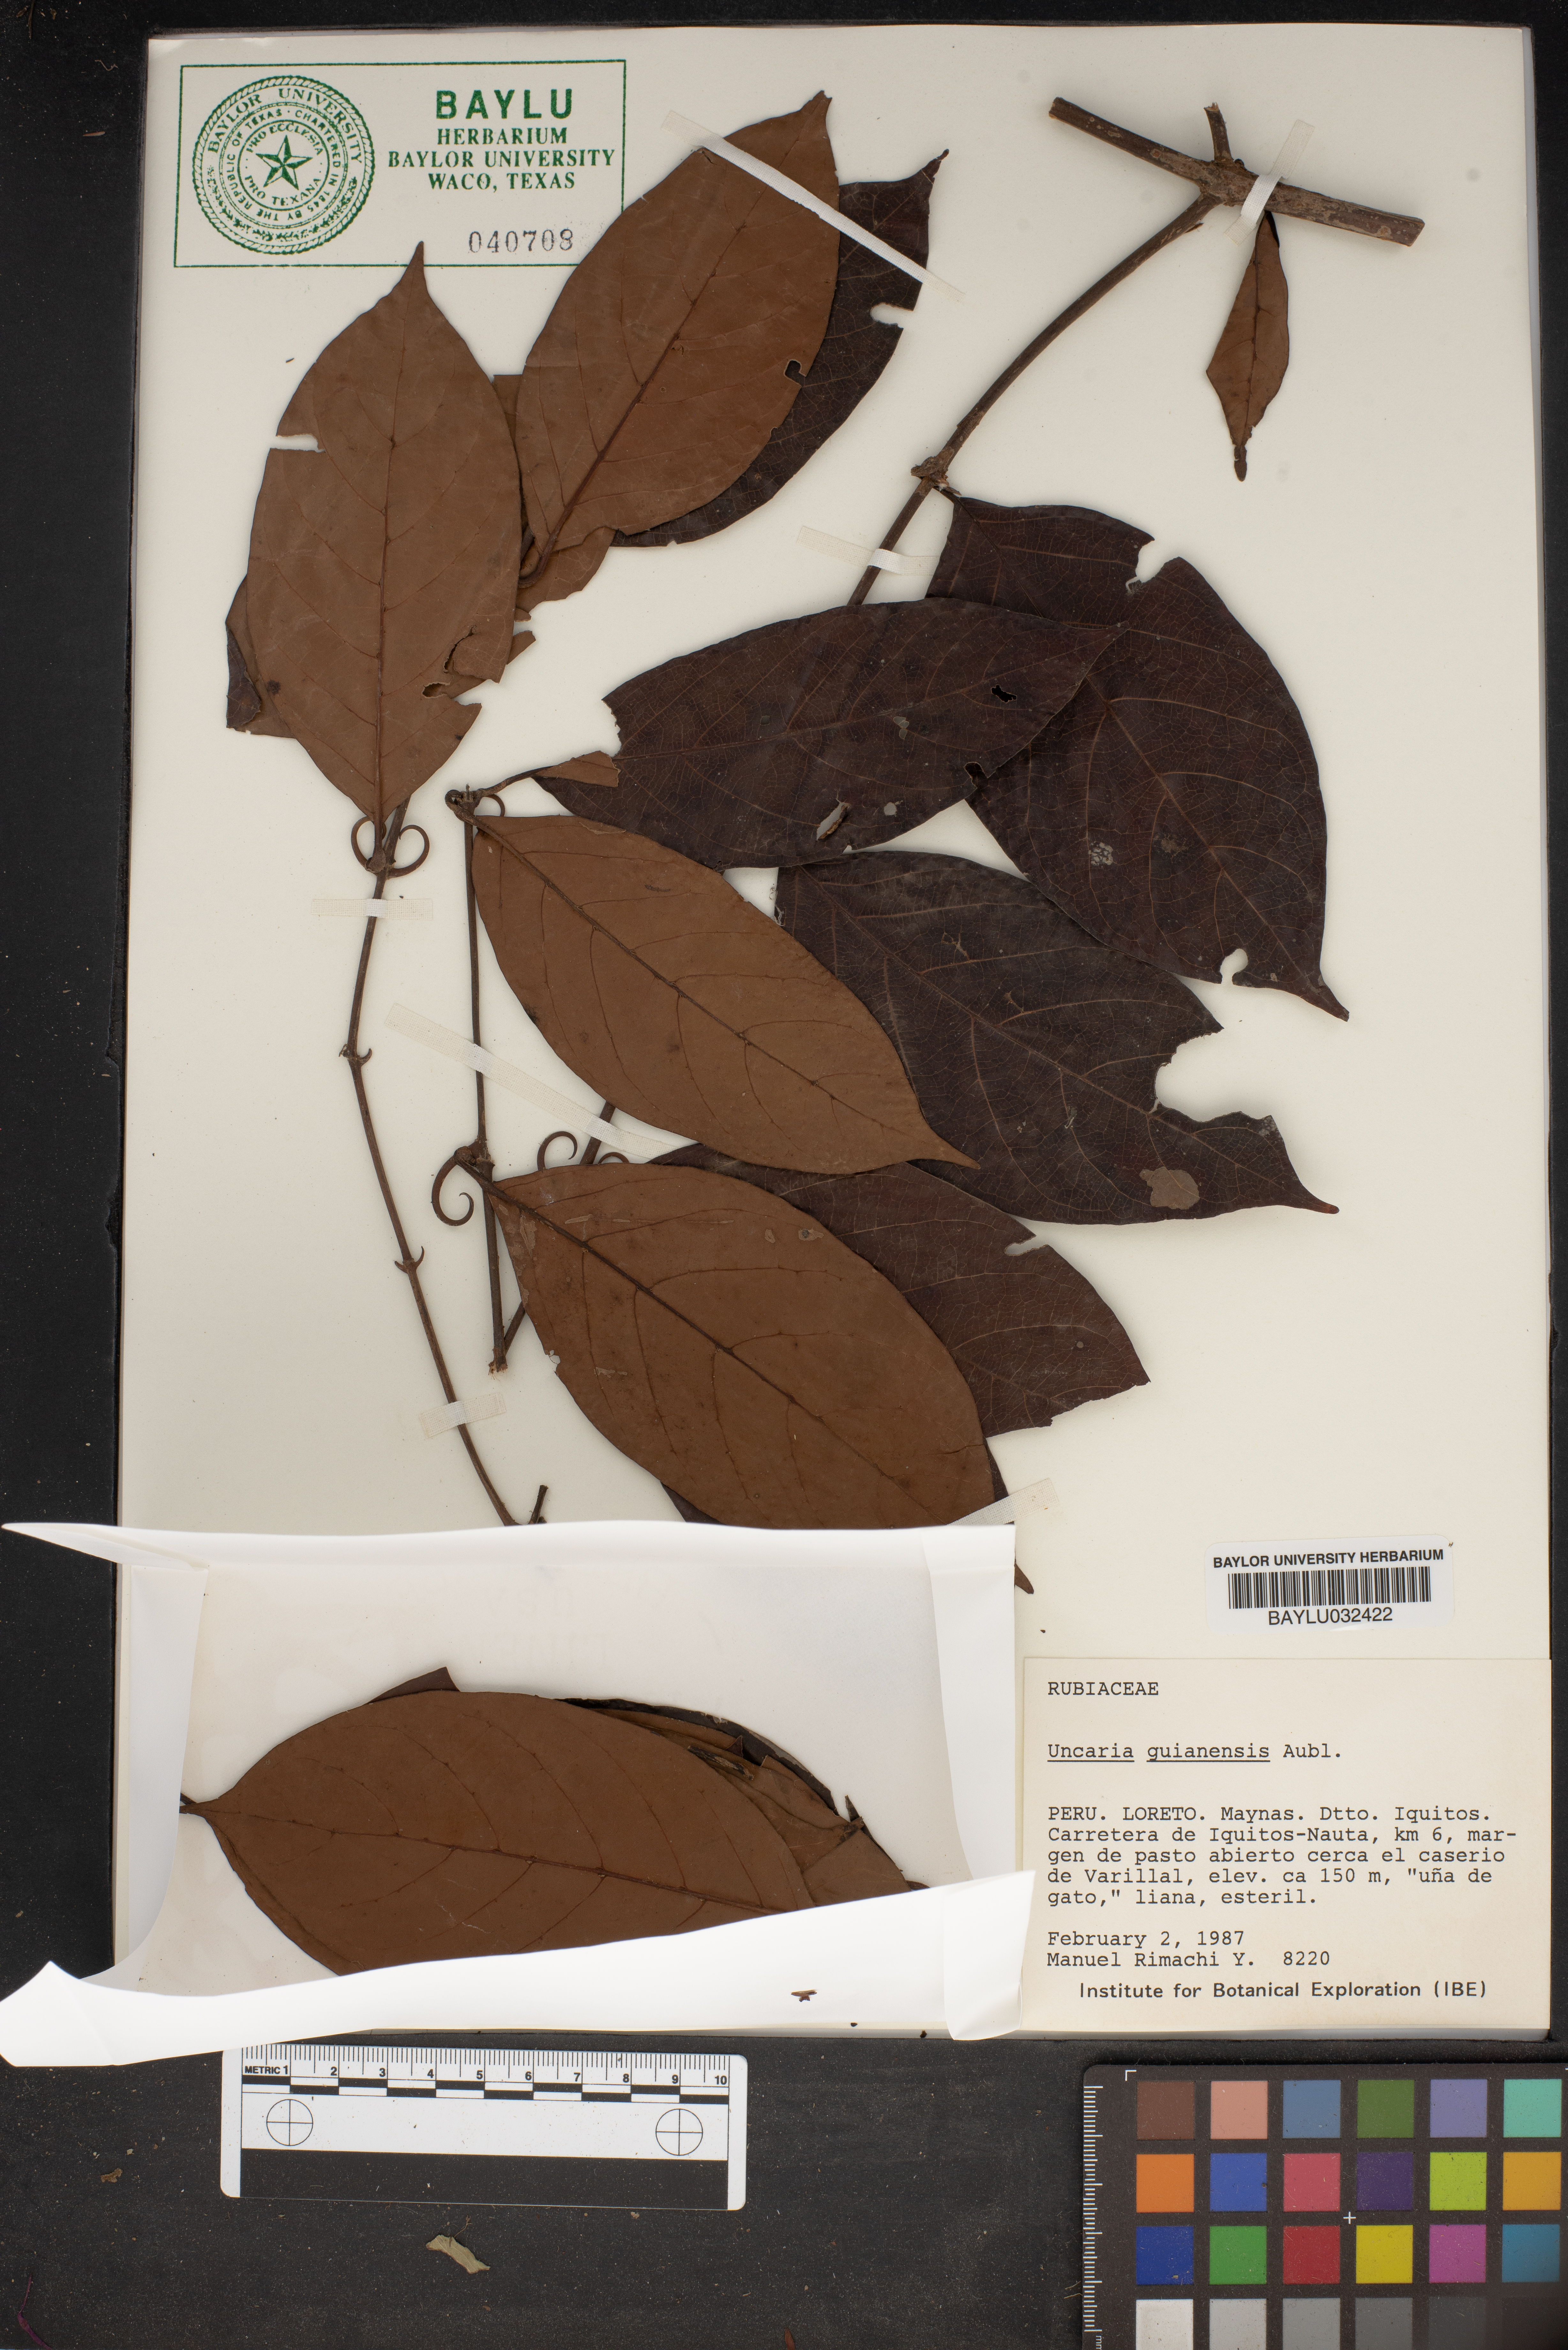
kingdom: Plantae
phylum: Tracheophyta
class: Magnoliopsida
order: Gentianales
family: Rubiaceae
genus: Uncaria
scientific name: Uncaria guianensis
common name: Cat's-claw
